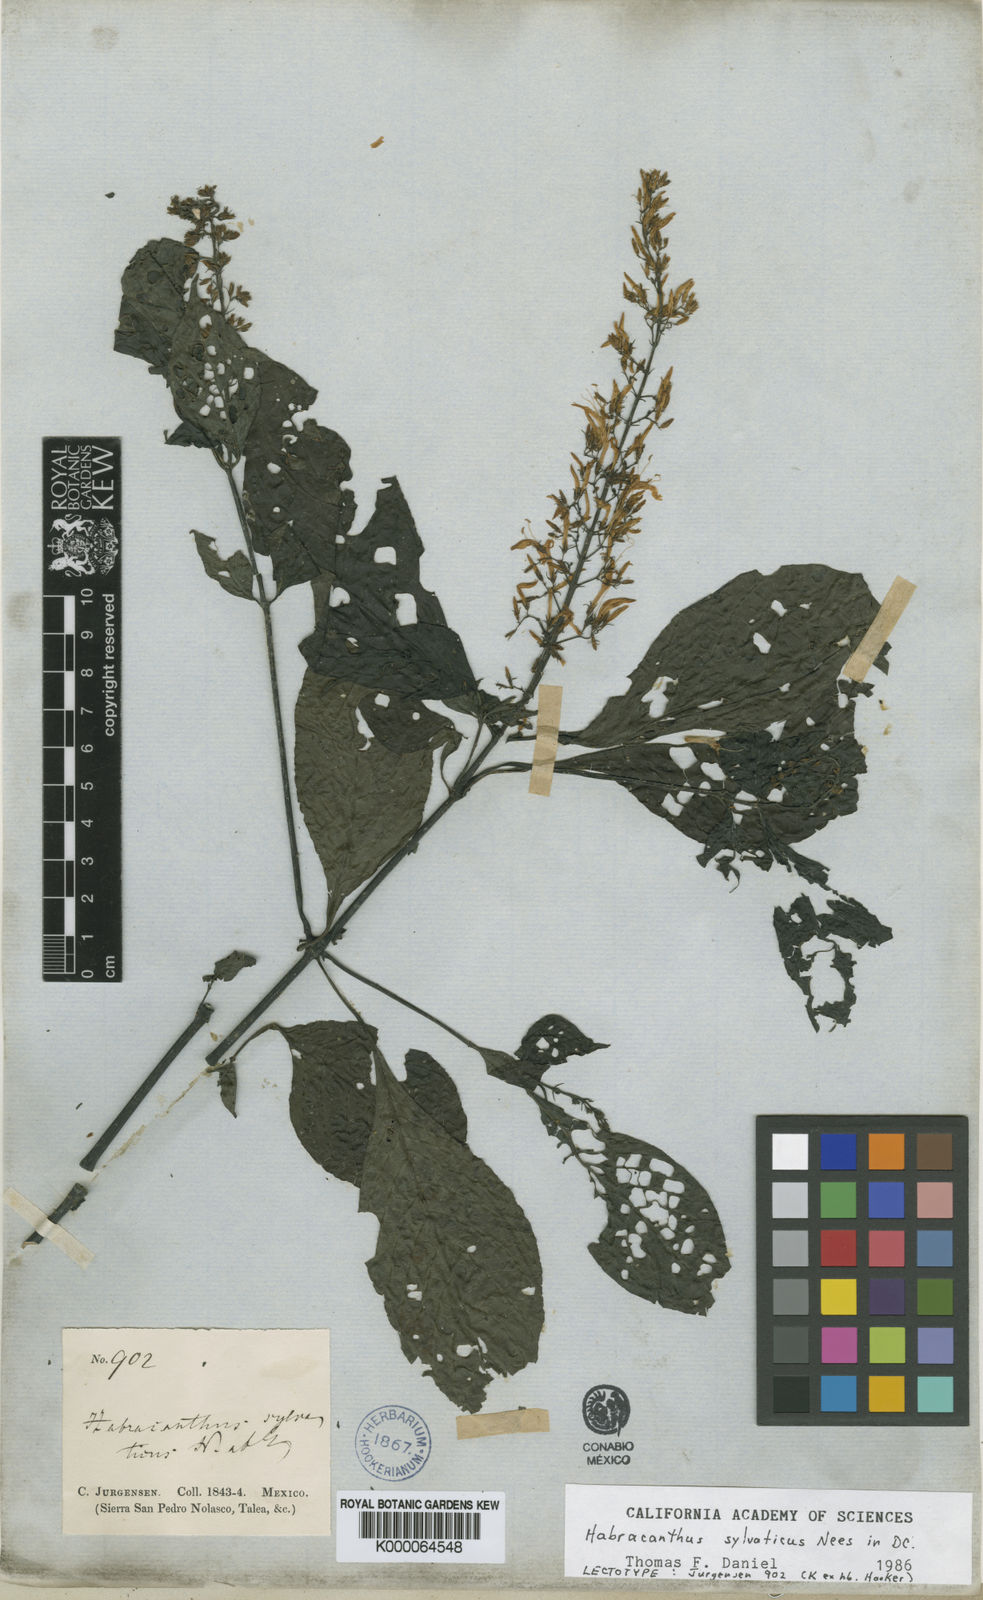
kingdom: Plantae
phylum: Tracheophyta
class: Magnoliopsida
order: Lamiales
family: Acanthaceae
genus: Stenostephanus
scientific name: Stenostephanus silvaticus
